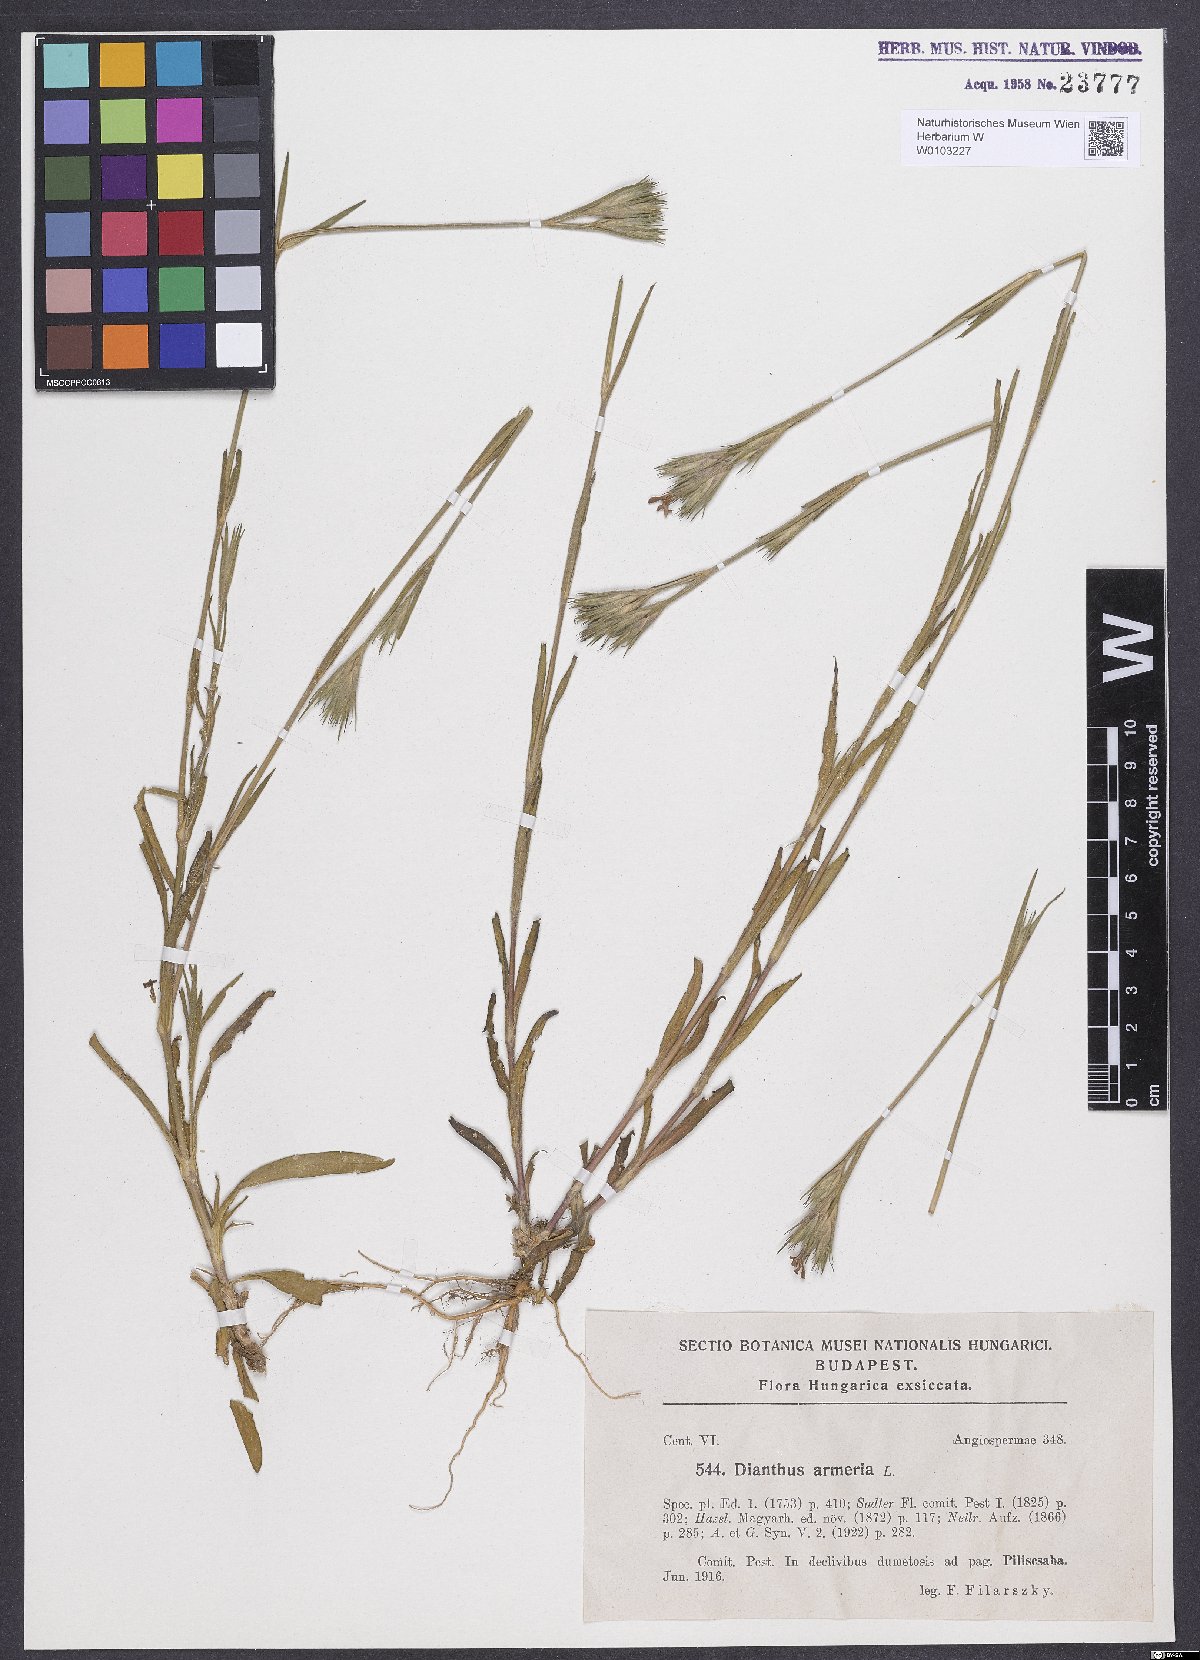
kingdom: Plantae
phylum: Tracheophyta
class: Magnoliopsida
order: Caryophyllales
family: Caryophyllaceae
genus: Dianthus
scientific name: Dianthus armeria
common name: Deptford pink
